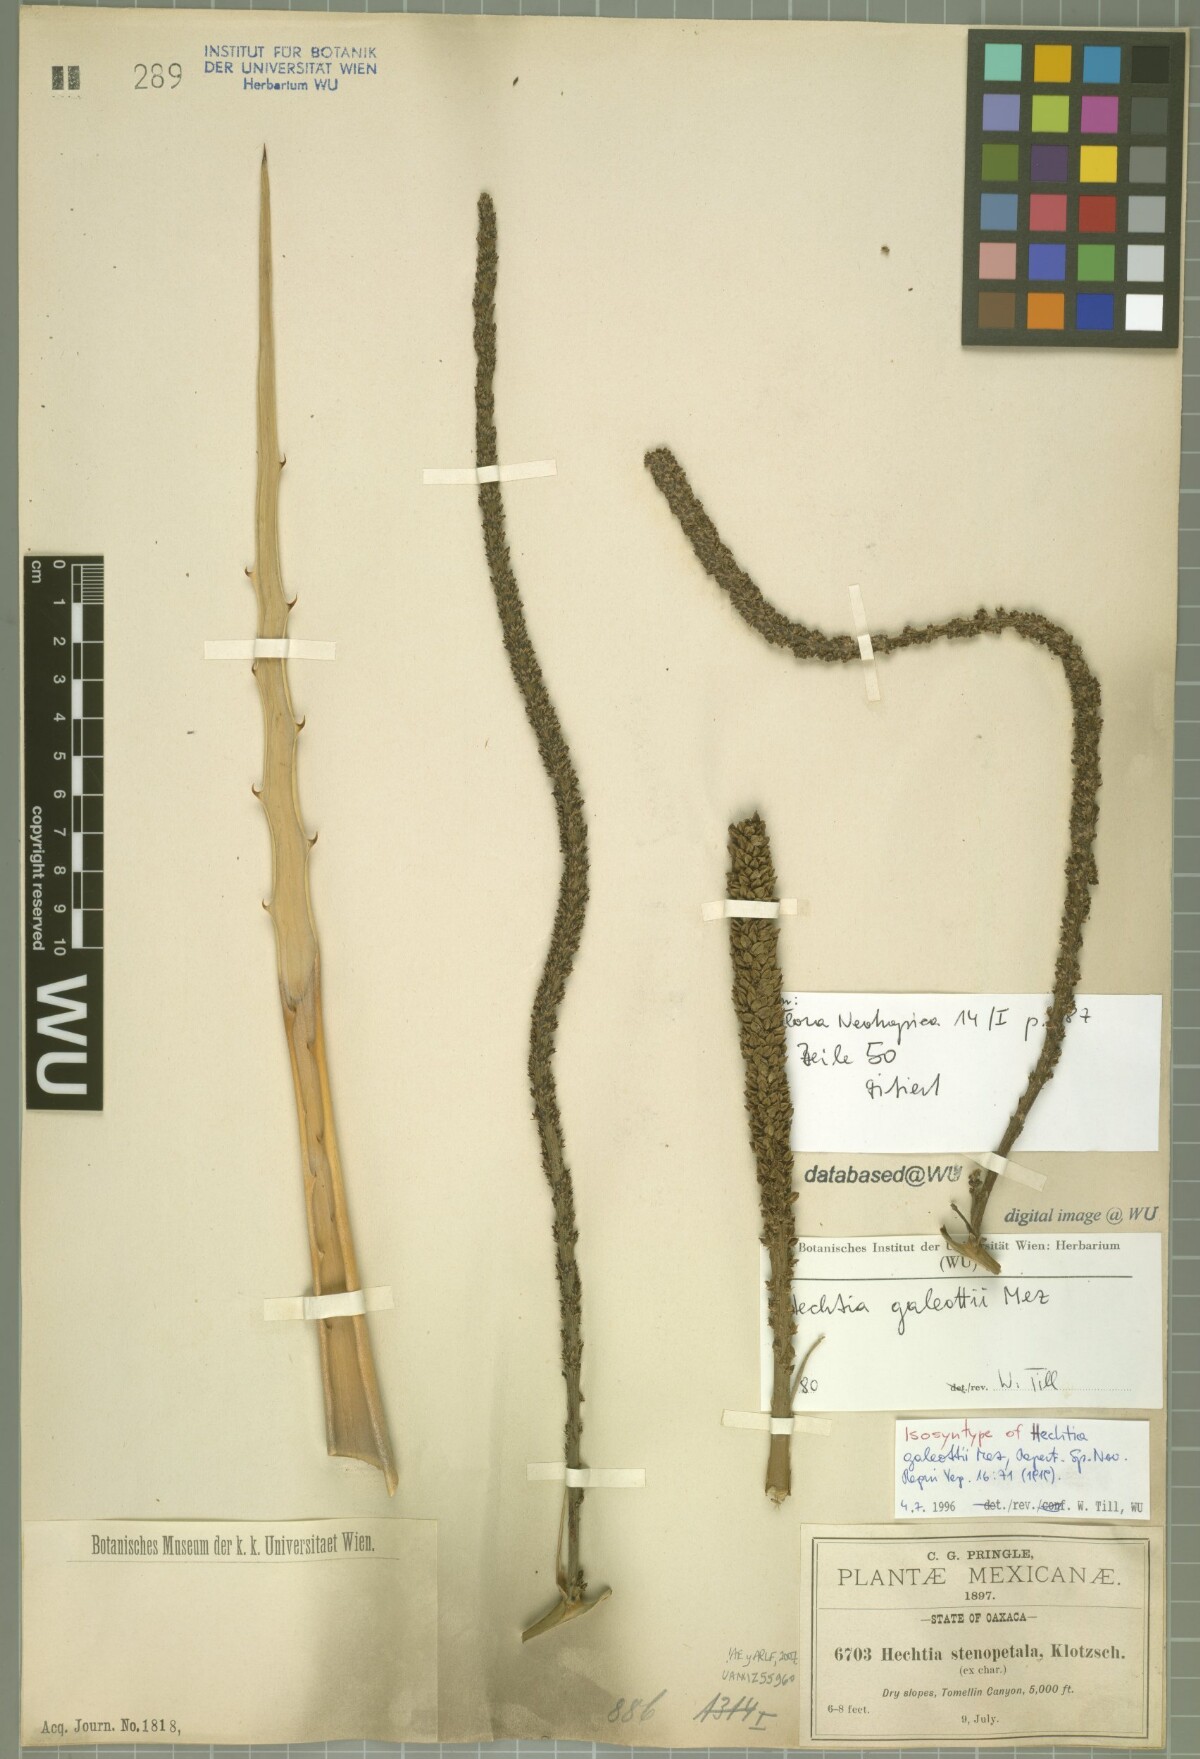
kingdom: Plantae
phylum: Tracheophyta
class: Liliopsida
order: Poales
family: Bromeliaceae
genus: Hechtia
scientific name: Hechtia galeottii
